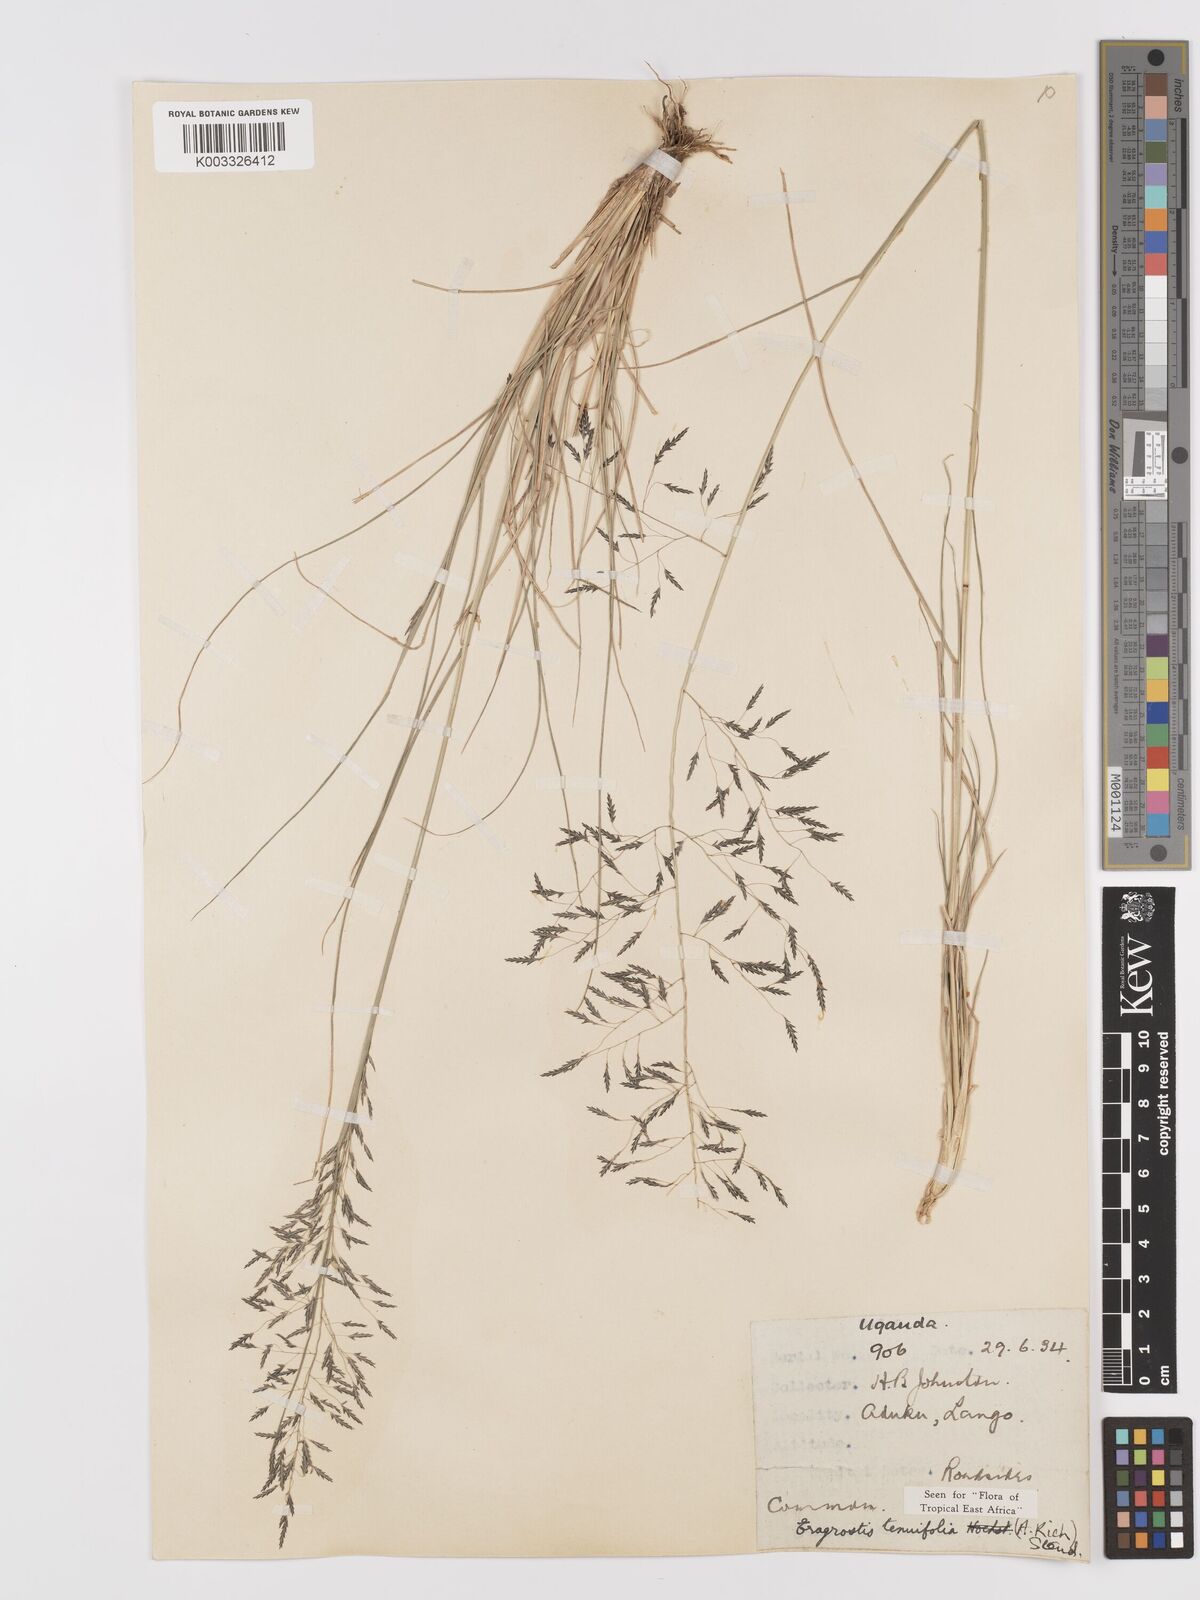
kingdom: Plantae
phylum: Tracheophyta
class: Liliopsida
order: Poales
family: Poaceae
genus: Eragrostis
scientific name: Eragrostis tenuifolia
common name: Elastic grass
